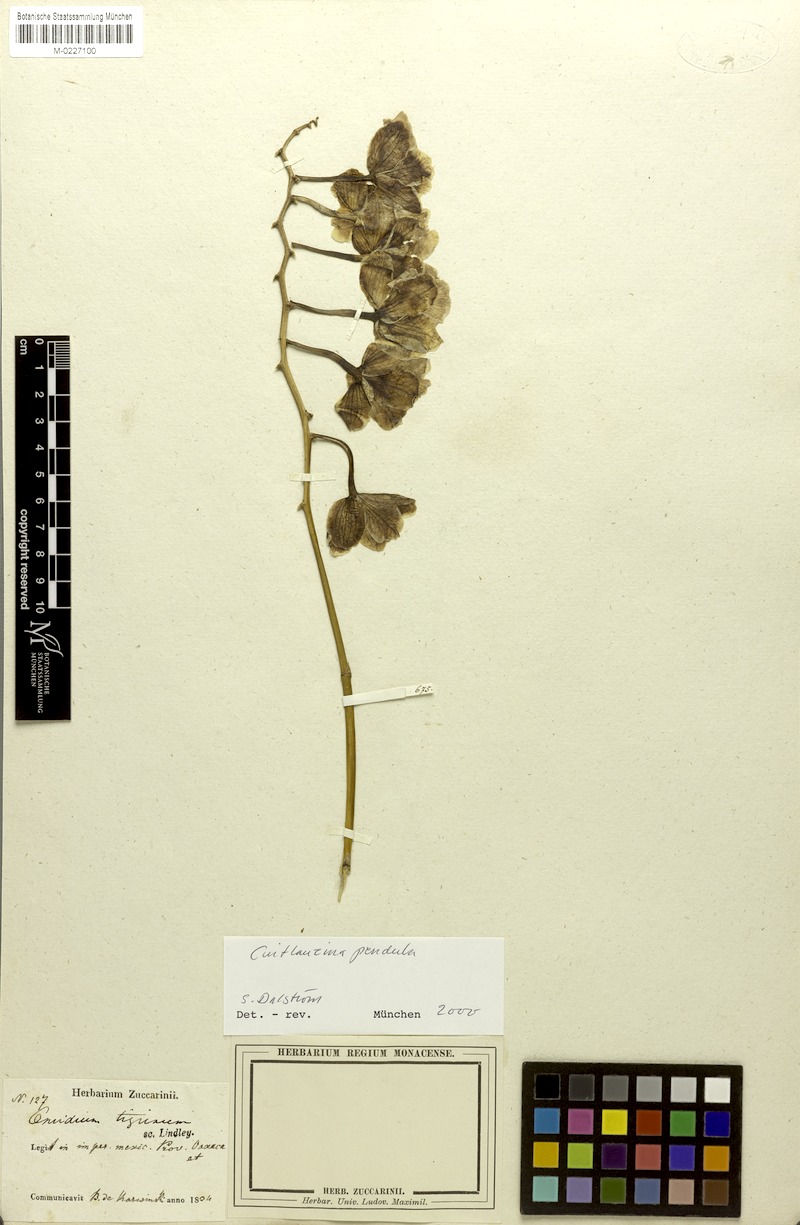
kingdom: Plantae
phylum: Tracheophyta
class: Liliopsida
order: Asparagales
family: Orchidaceae
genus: Cuitlauzina
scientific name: Cuitlauzina pendula
